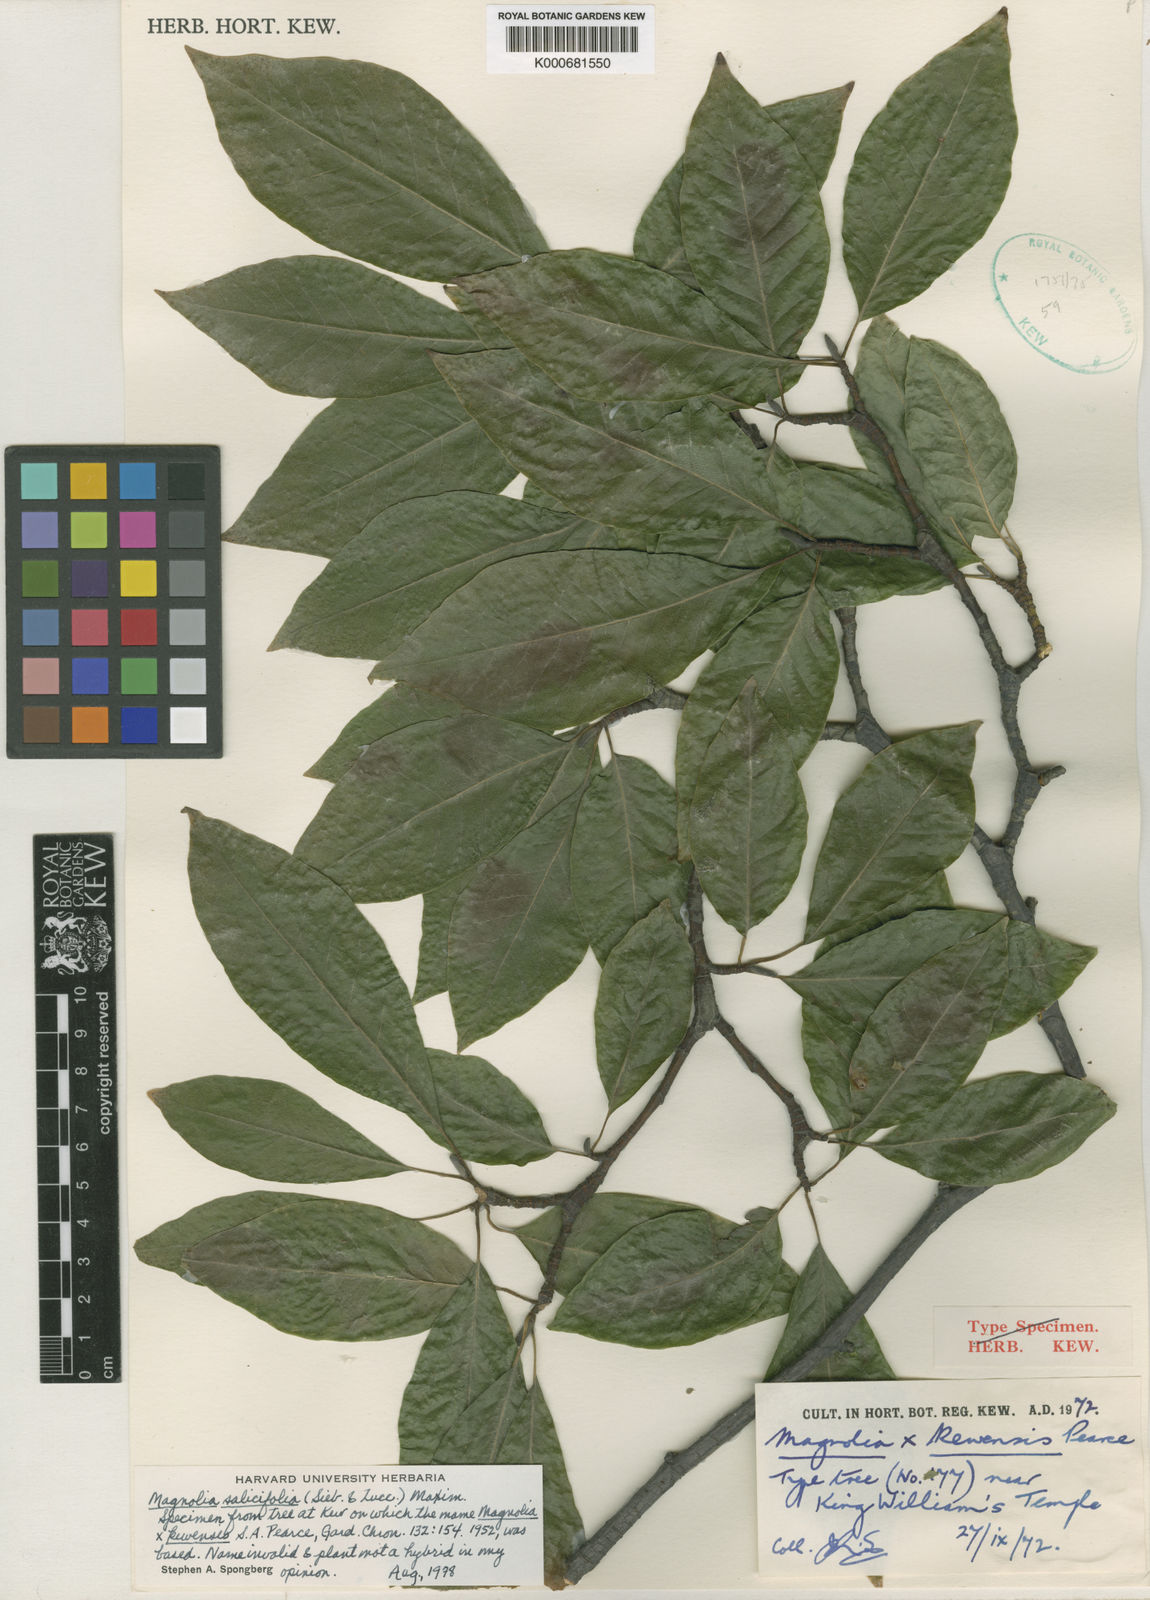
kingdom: Plantae
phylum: Tracheophyta
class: Magnoliopsida
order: Magnoliales
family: Magnoliaceae
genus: Magnolia
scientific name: Magnolia salicifolia
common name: Anise magnolia
